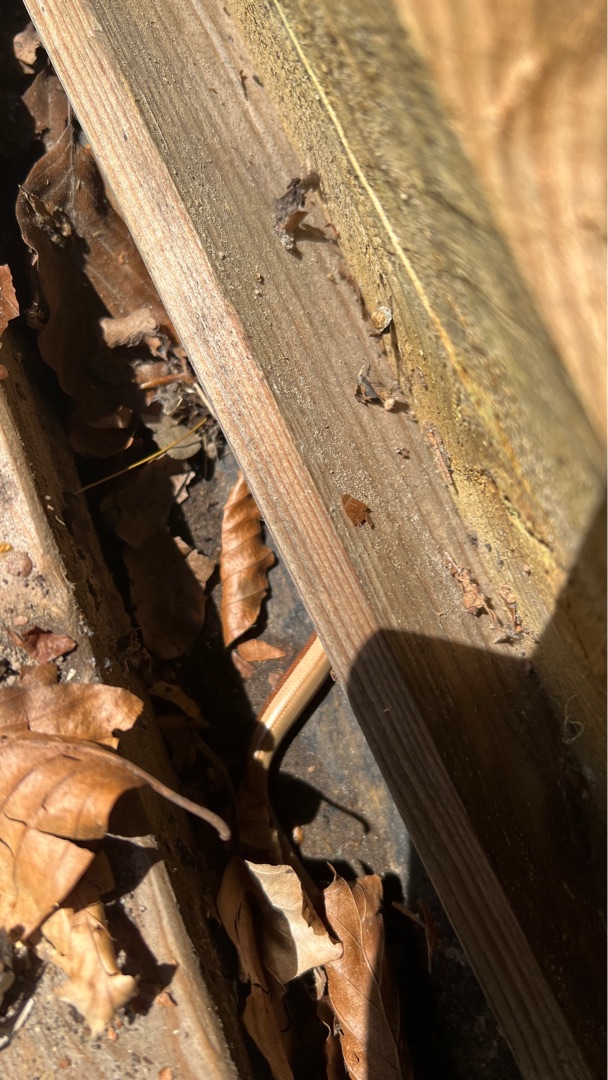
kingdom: Animalia
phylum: Chordata
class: Squamata
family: Anguidae
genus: Anguis
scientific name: Anguis fragilis
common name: Stålorm
